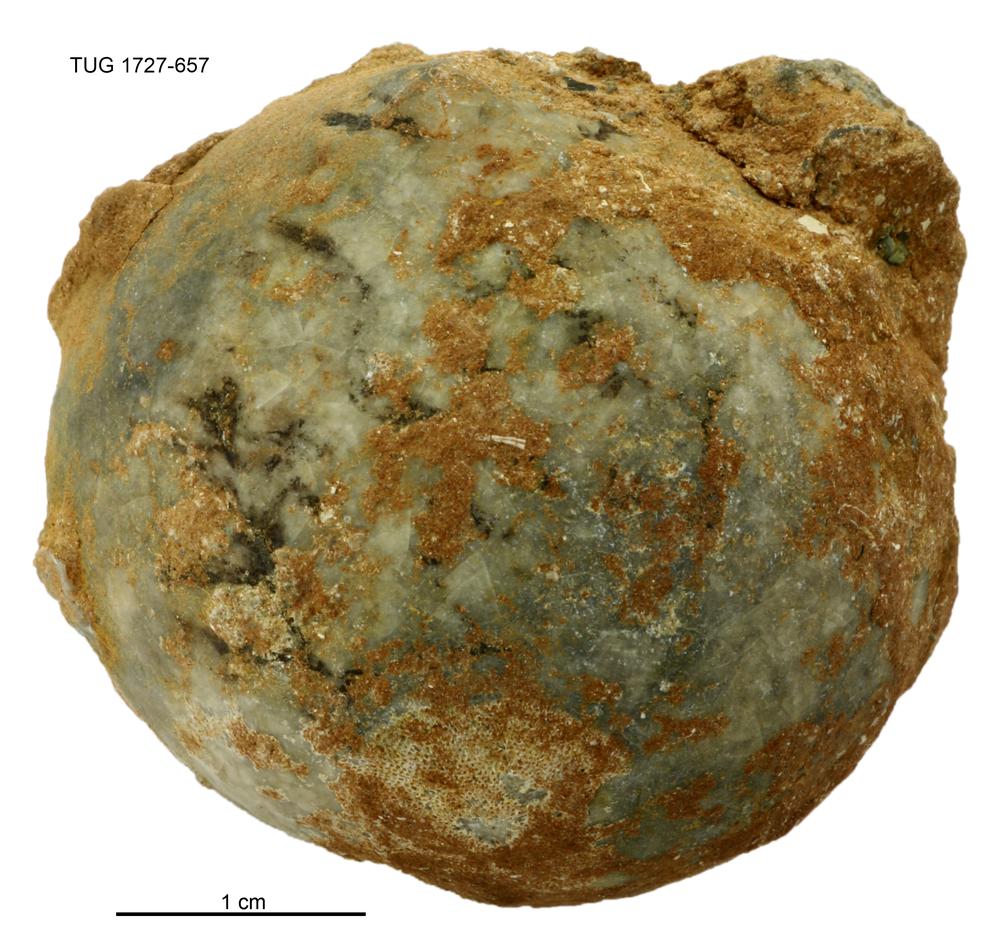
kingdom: Animalia
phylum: Echinodermata
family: Echinosphaeritidae
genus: Echinosphaerites
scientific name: Echinosphaerites Echinus aurantium
